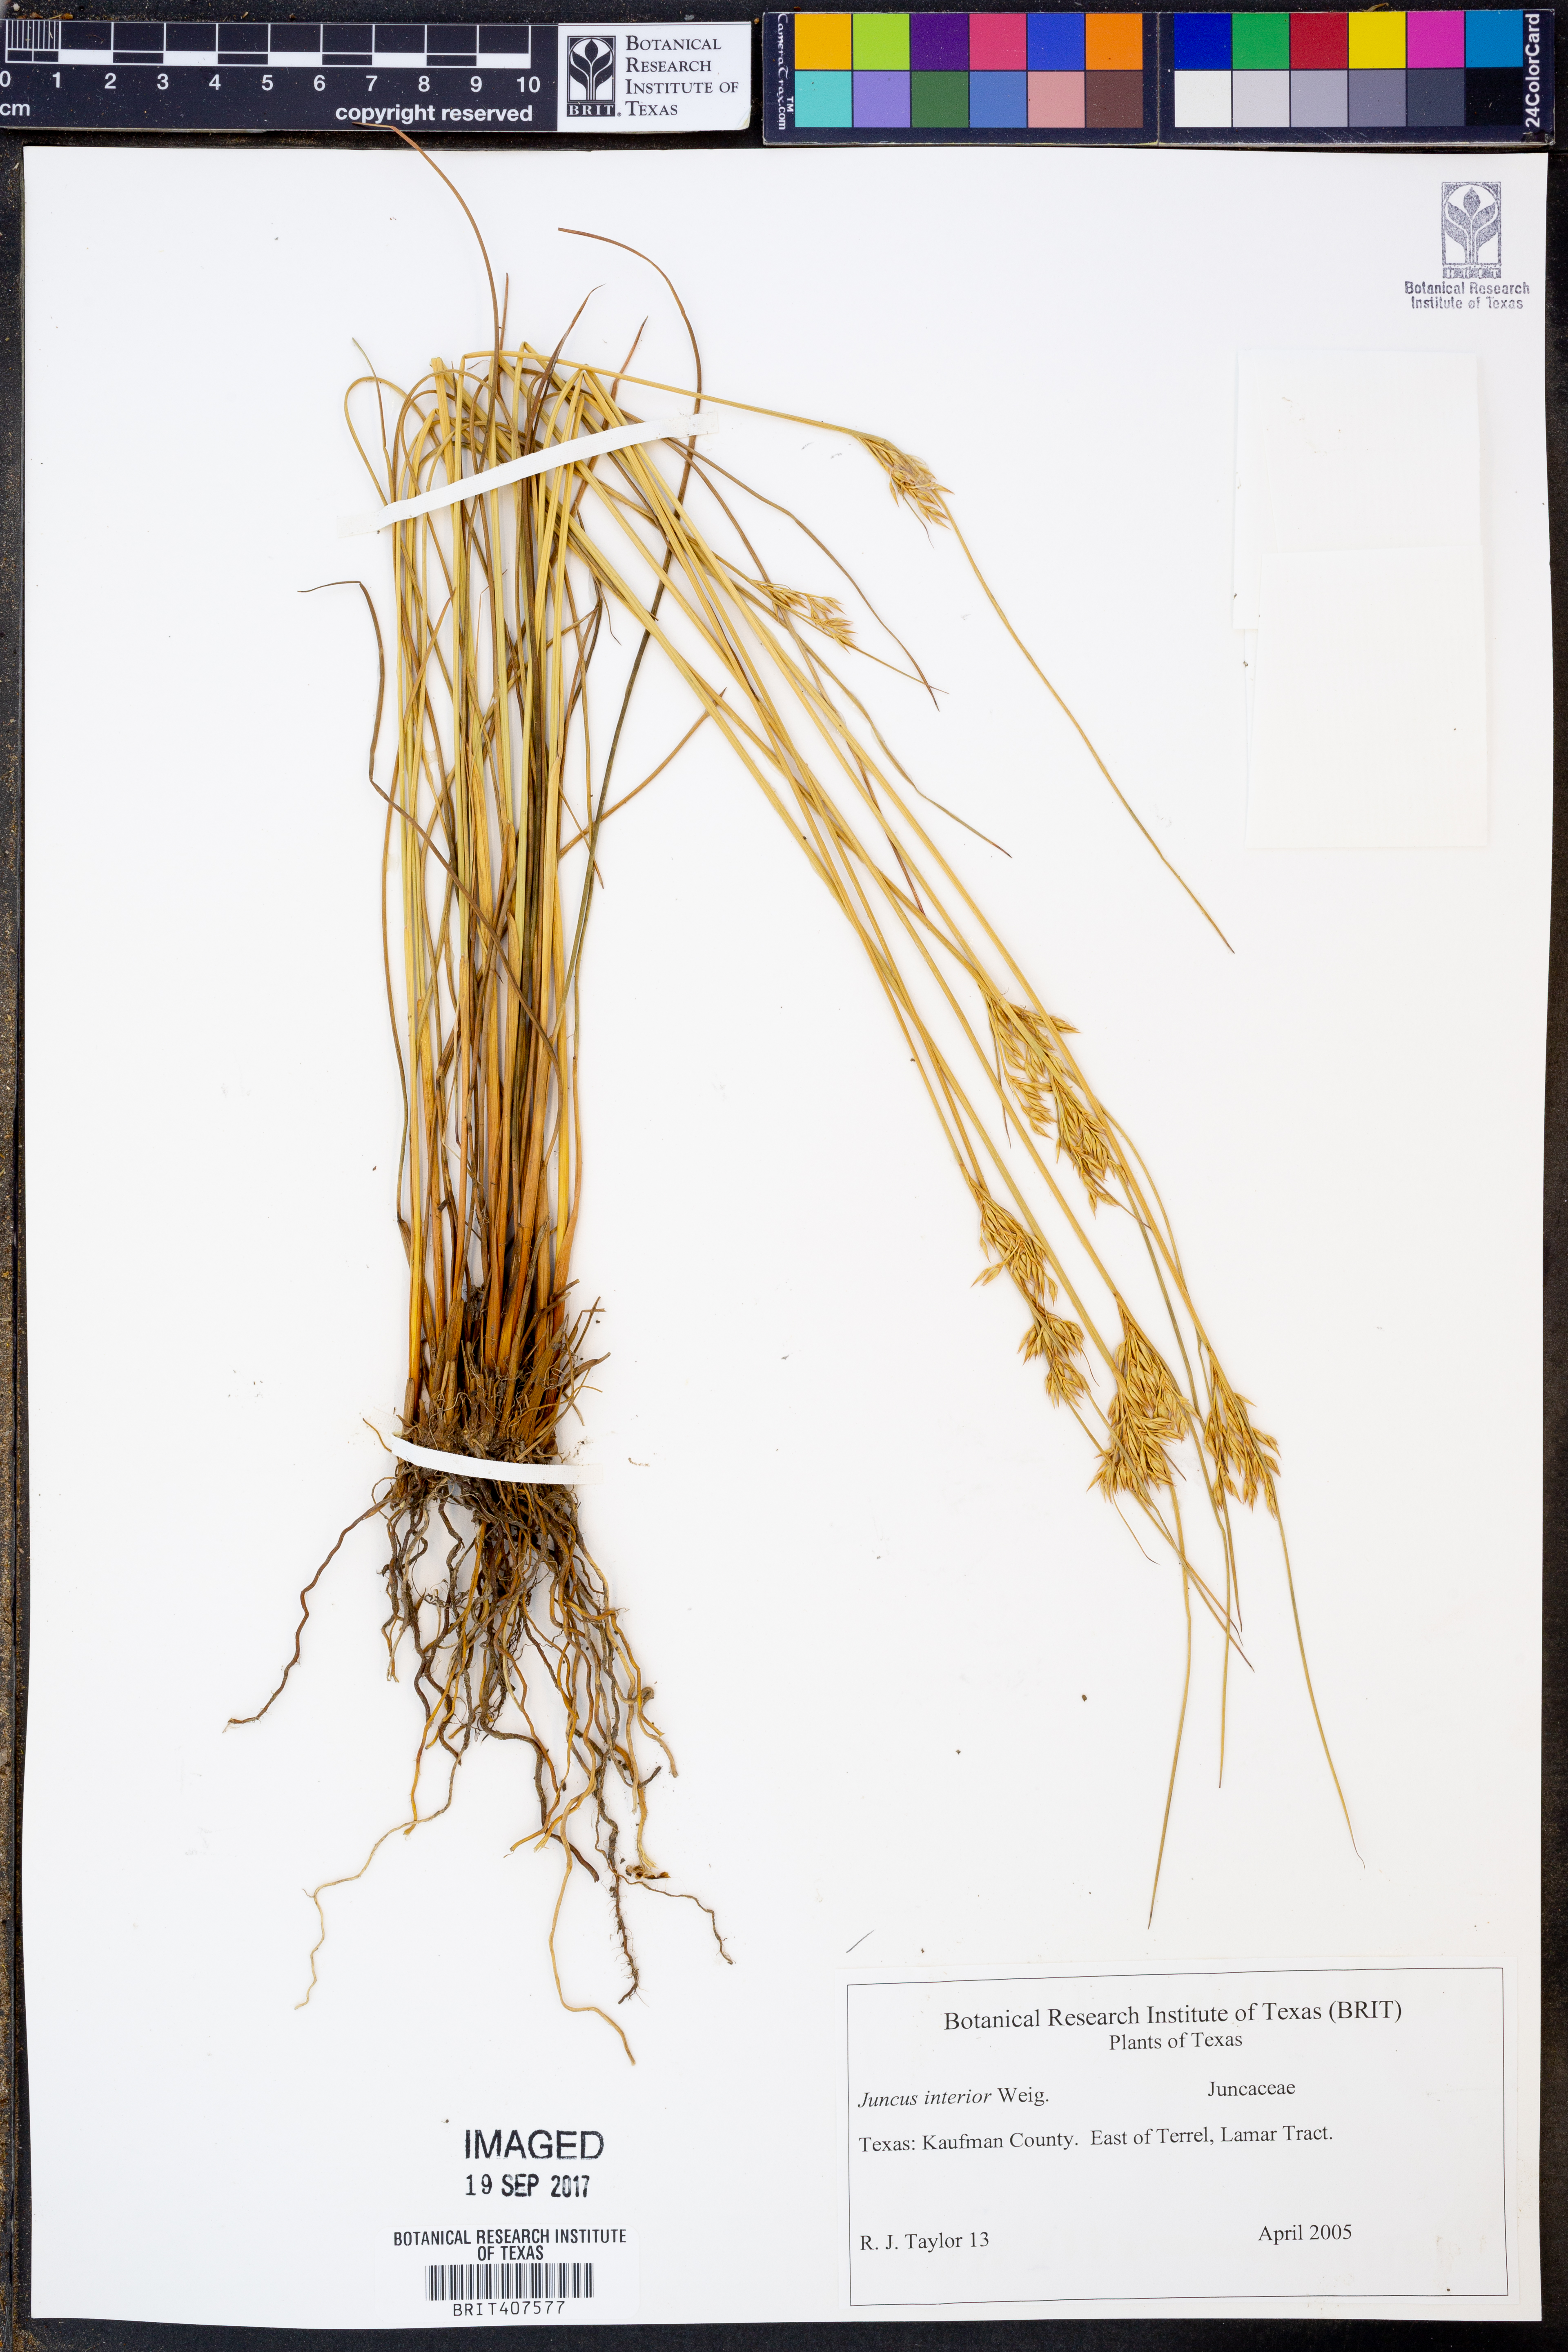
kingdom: Plantae
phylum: Tracheophyta
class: Liliopsida
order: Poales
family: Juncaceae
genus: Juncus
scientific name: Juncus interior
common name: Interior rush
